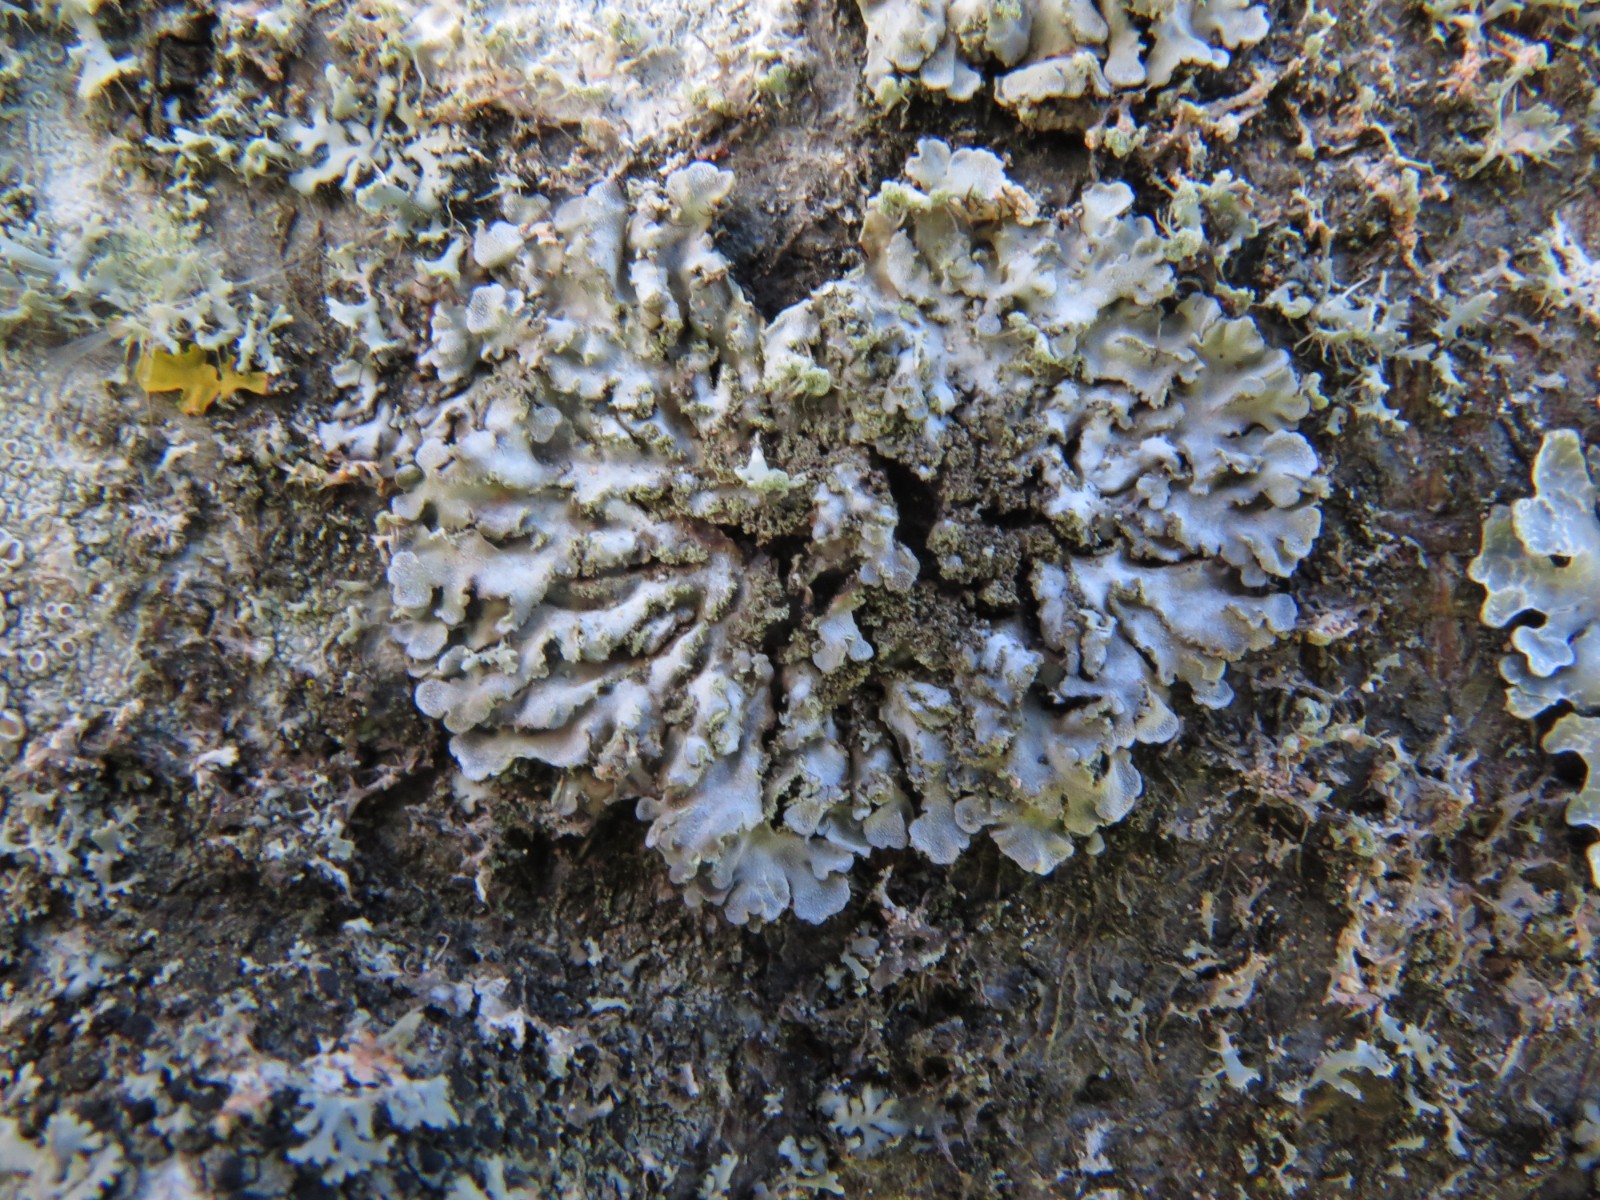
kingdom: Fungi
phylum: Ascomycota
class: Lecanoromycetes
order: Caliciales
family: Physciaceae
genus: Poeltonia
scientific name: Poeltonia grisea
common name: hvidgrå dugrosetlav
